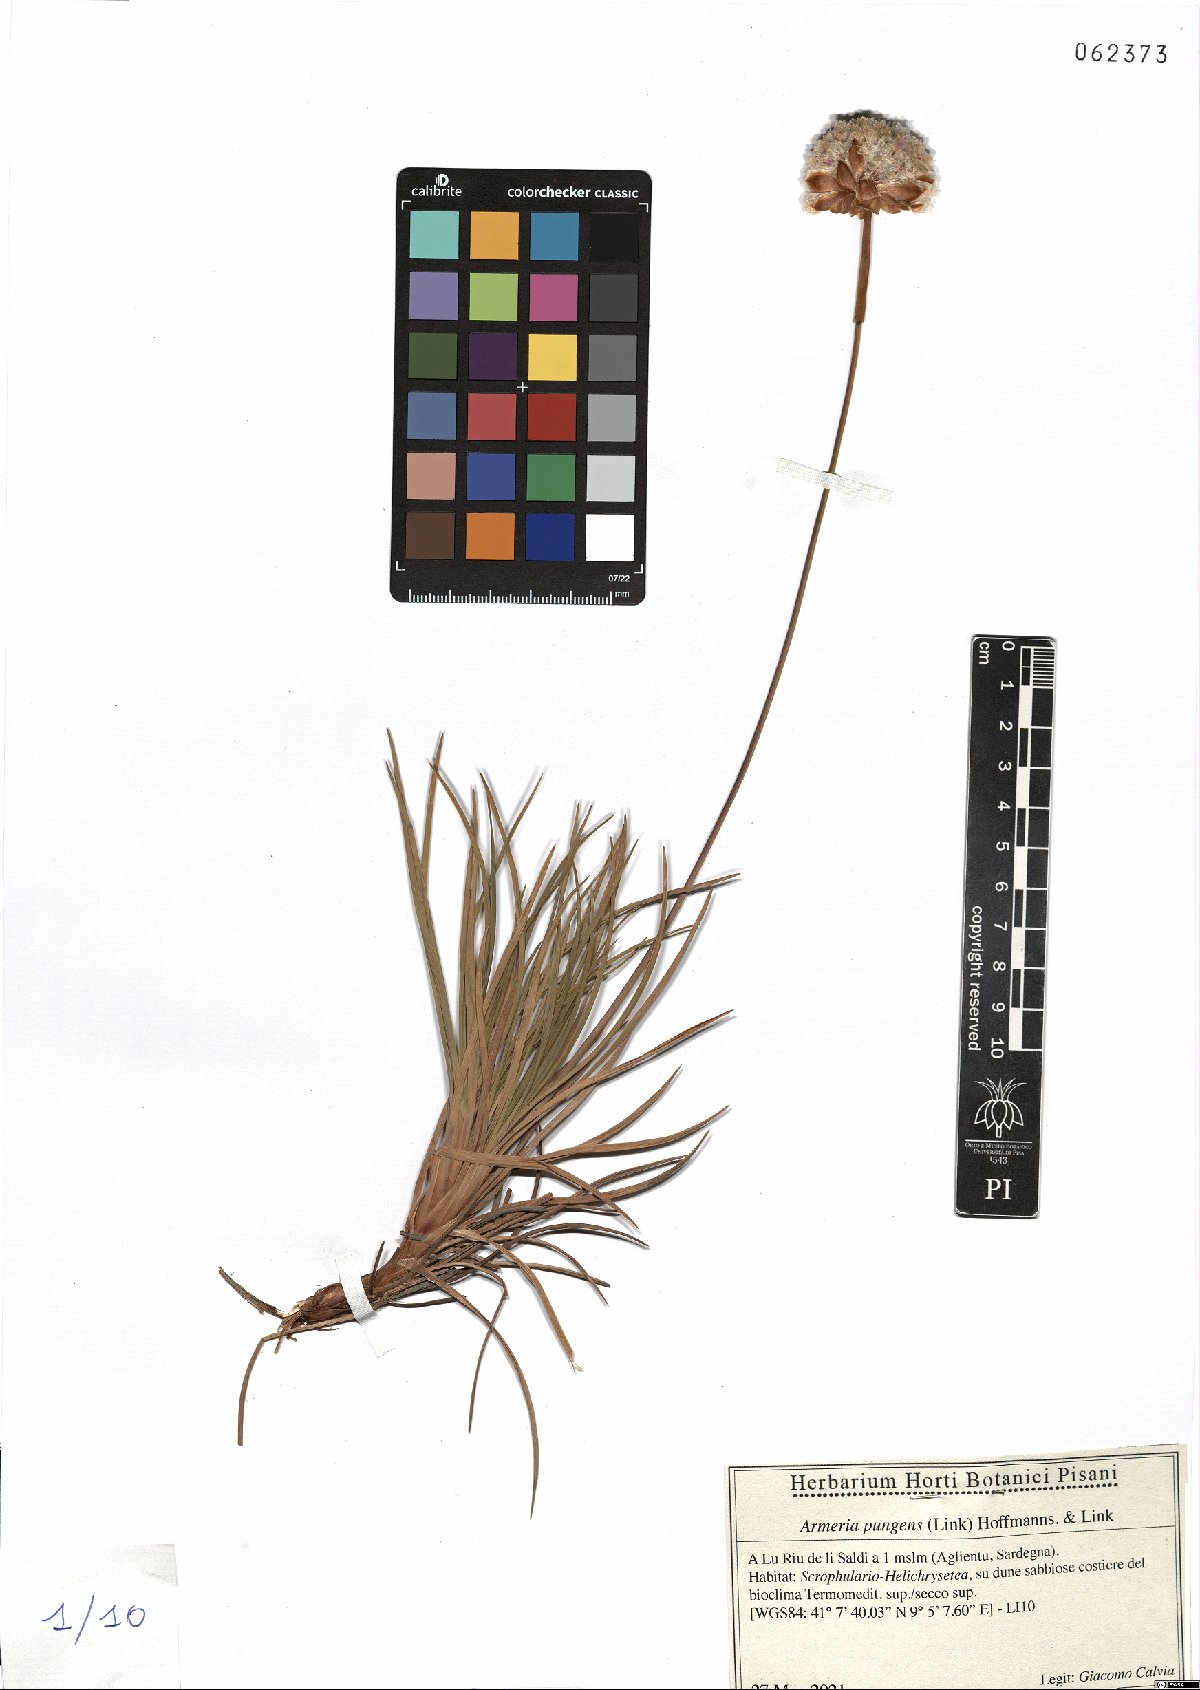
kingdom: Plantae
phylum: Tracheophyta
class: Magnoliopsida
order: Caryophyllales
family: Plumbaginaceae
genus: Armeria
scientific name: Armeria pungens
